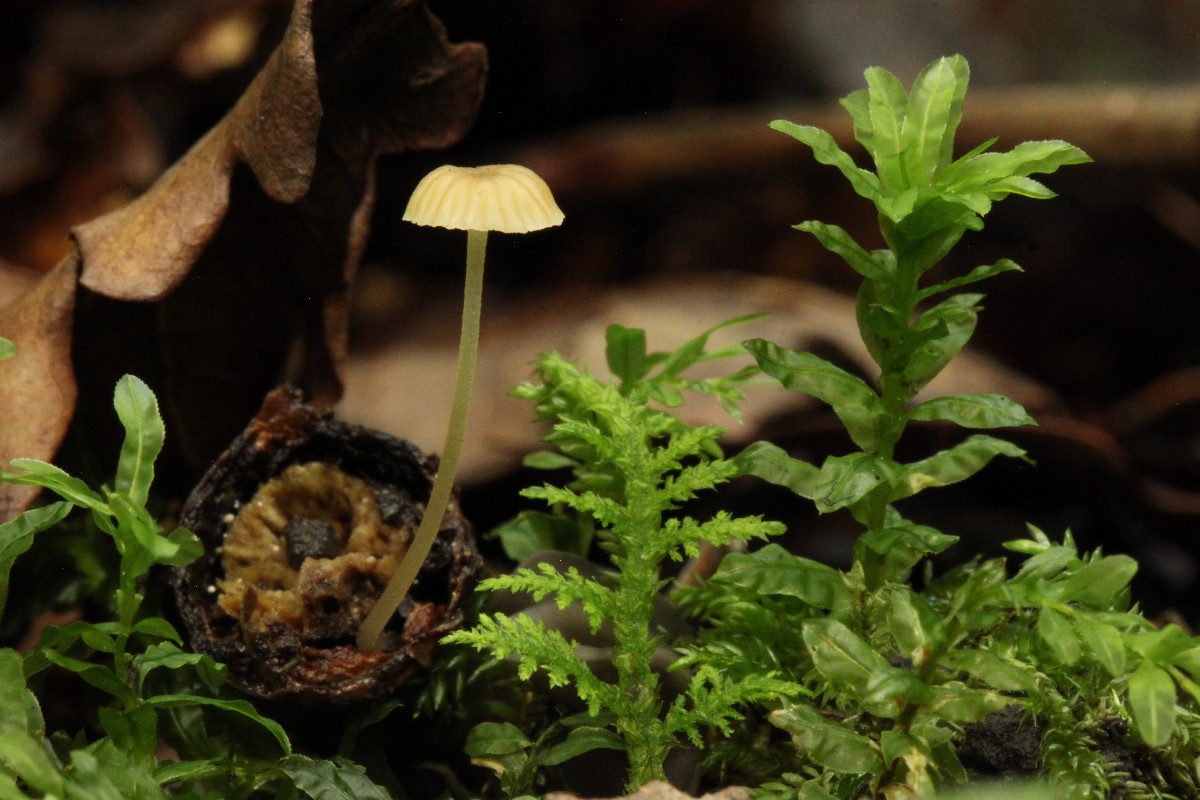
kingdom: Fungi
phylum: Basidiomycota
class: Agaricomycetes
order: Agaricales
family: Porotheleaceae
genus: Phloeomana
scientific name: Phloeomana speirea
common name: kvist-huesvamp
